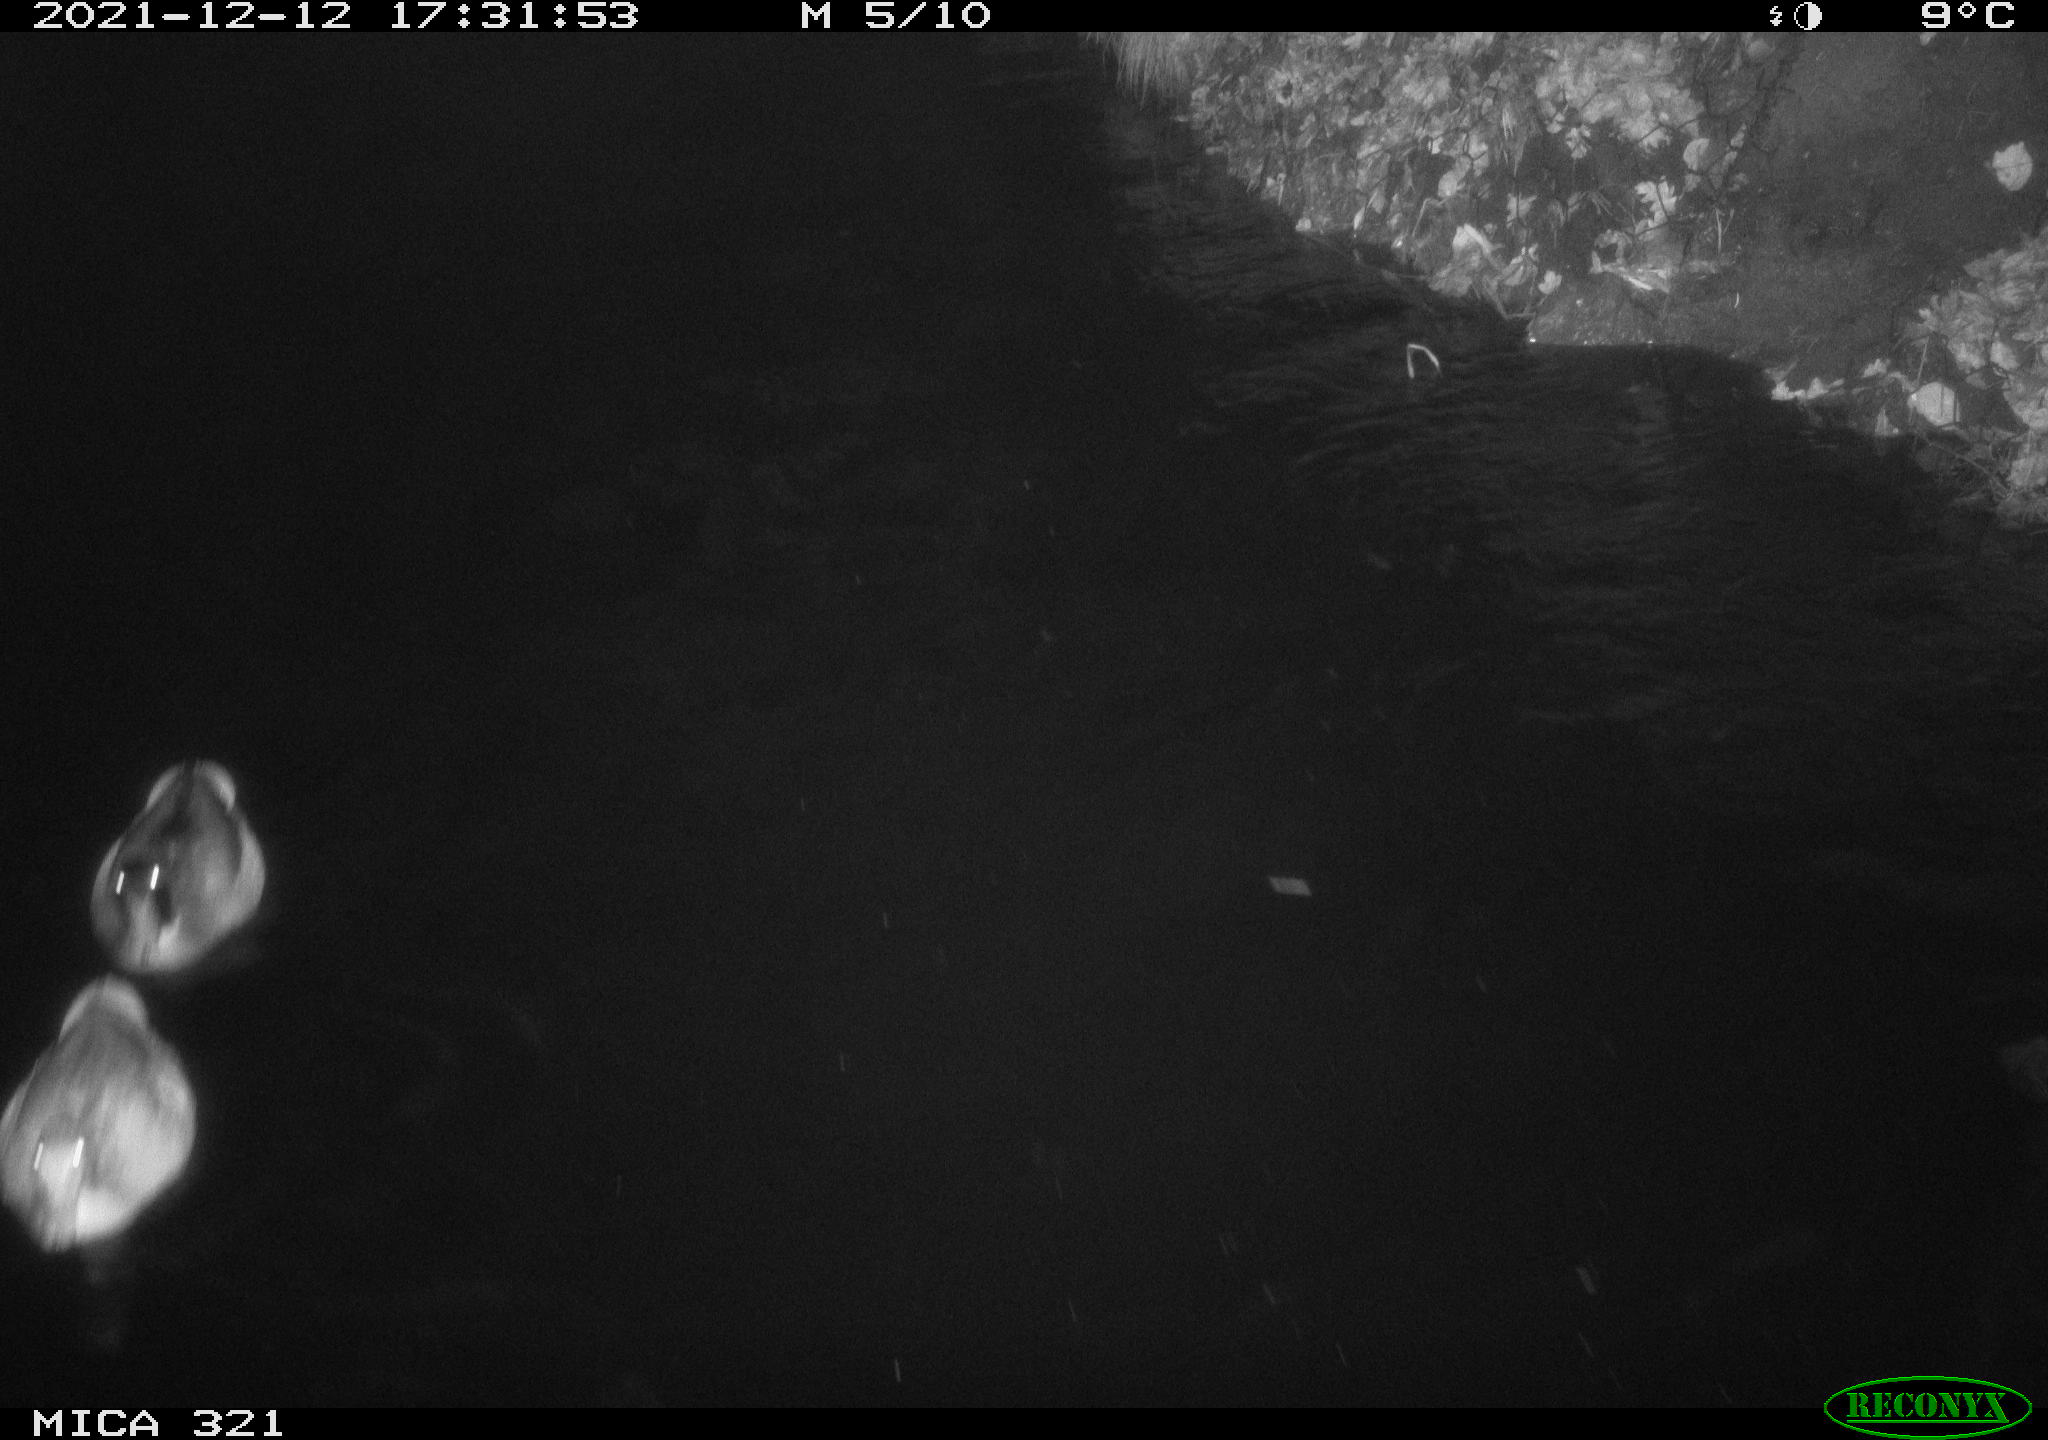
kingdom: Animalia
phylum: Chordata
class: Aves
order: Anseriformes
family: Anatidae
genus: Anas
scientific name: Anas
